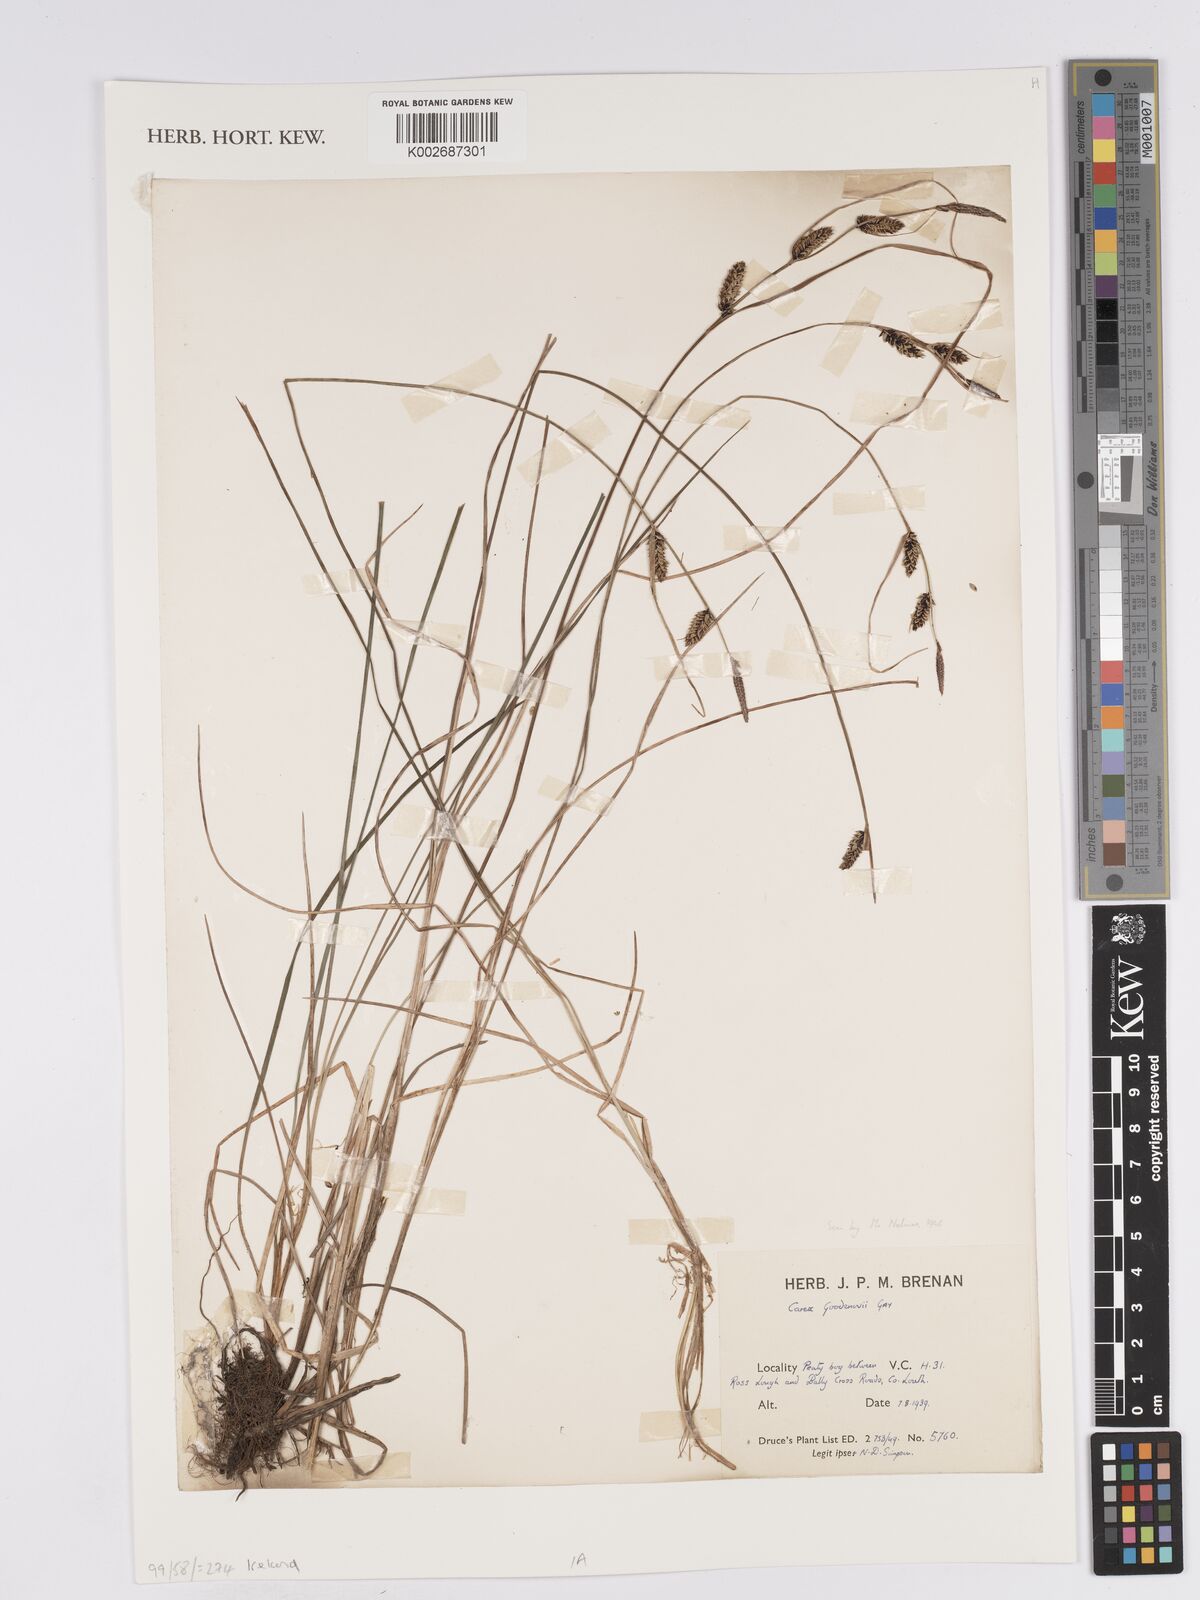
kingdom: Plantae
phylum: Tracheophyta
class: Liliopsida
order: Poales
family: Cyperaceae
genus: Carex
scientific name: Carex nigra
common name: Common sedge
